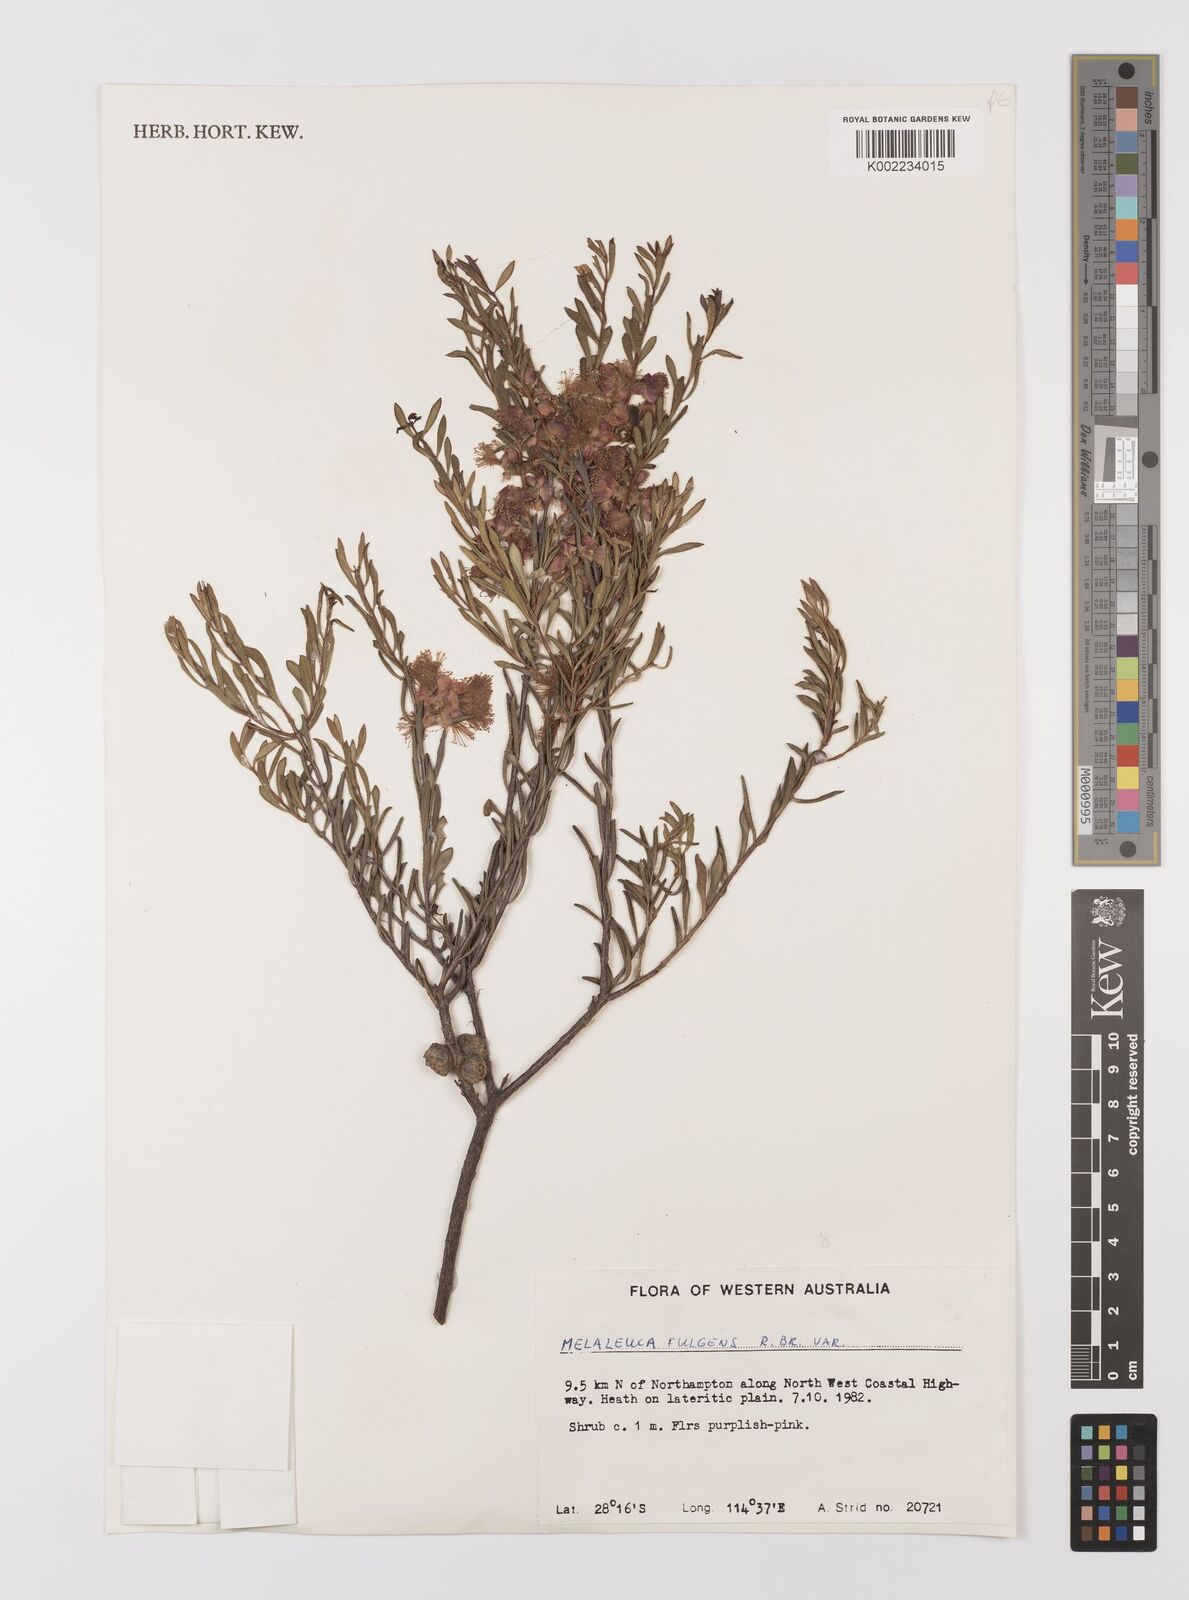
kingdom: Plantae
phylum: Tracheophyta
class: Magnoliopsida
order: Myrtales
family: Myrtaceae
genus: Melaleuca
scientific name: Melaleuca fulgens
